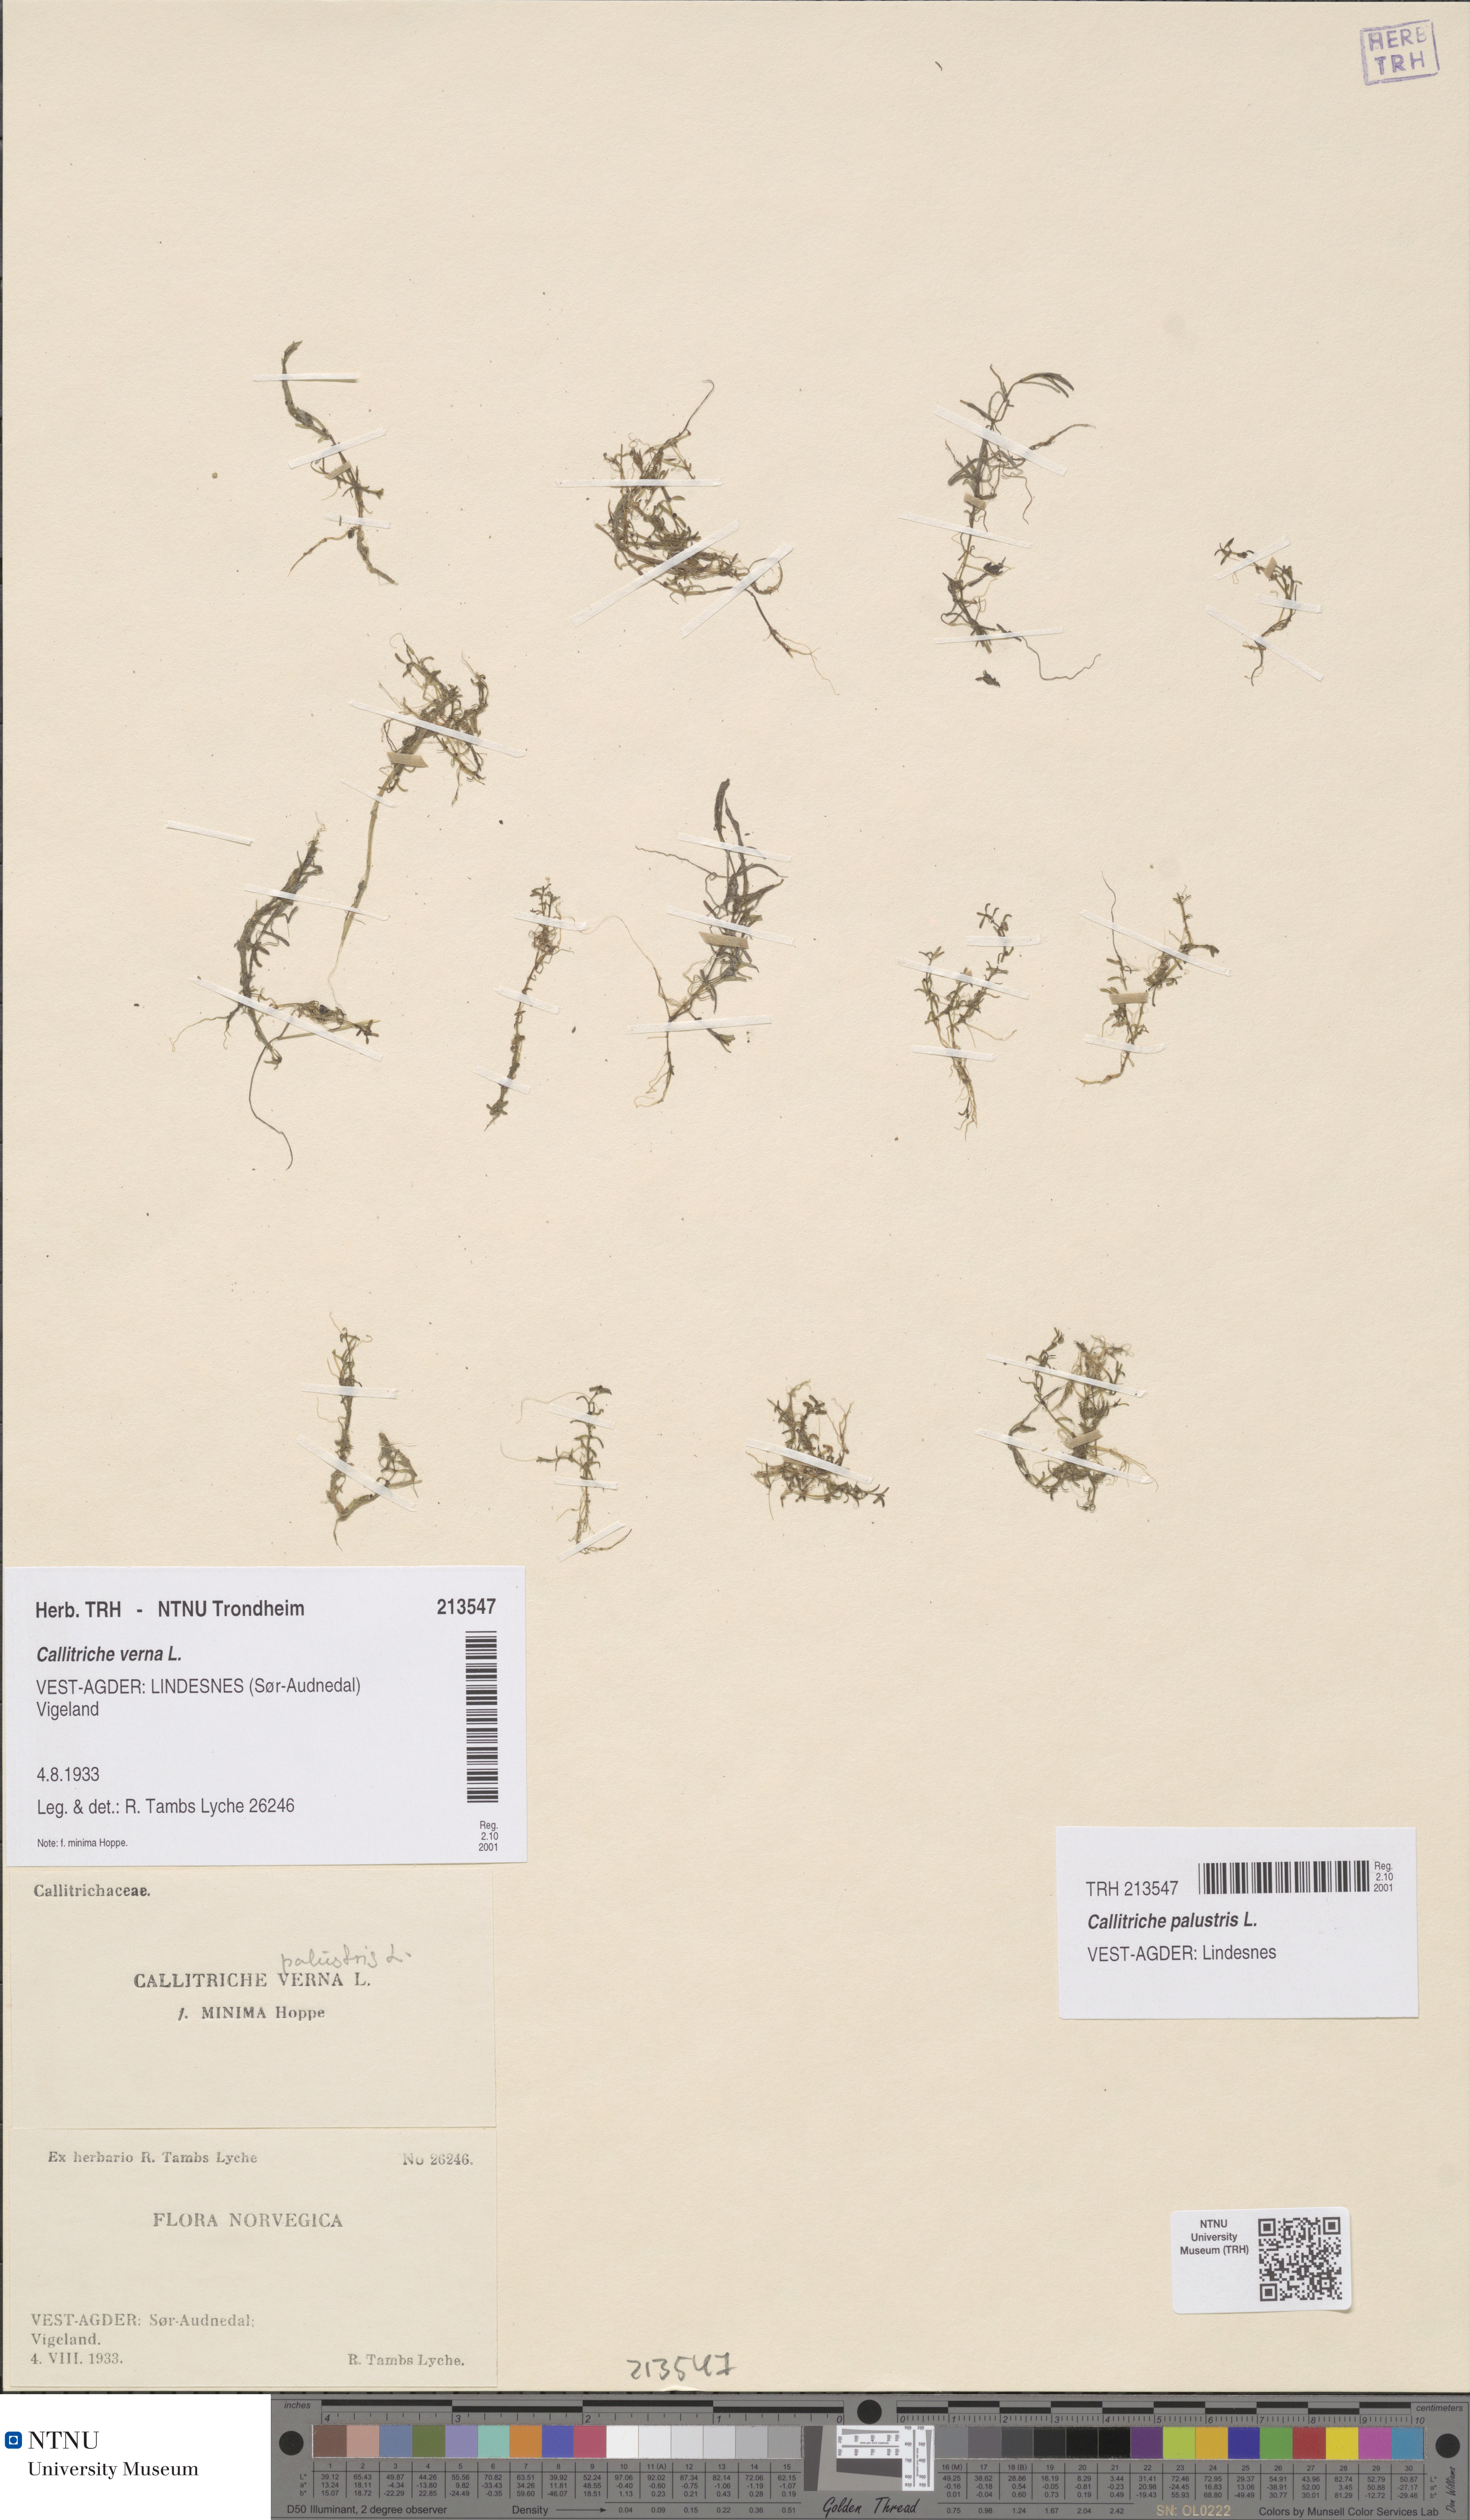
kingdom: Plantae
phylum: Tracheophyta
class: Magnoliopsida
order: Lamiales
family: Plantaginaceae
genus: Callitriche
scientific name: Callitriche palustris
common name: Spring water-starwort
